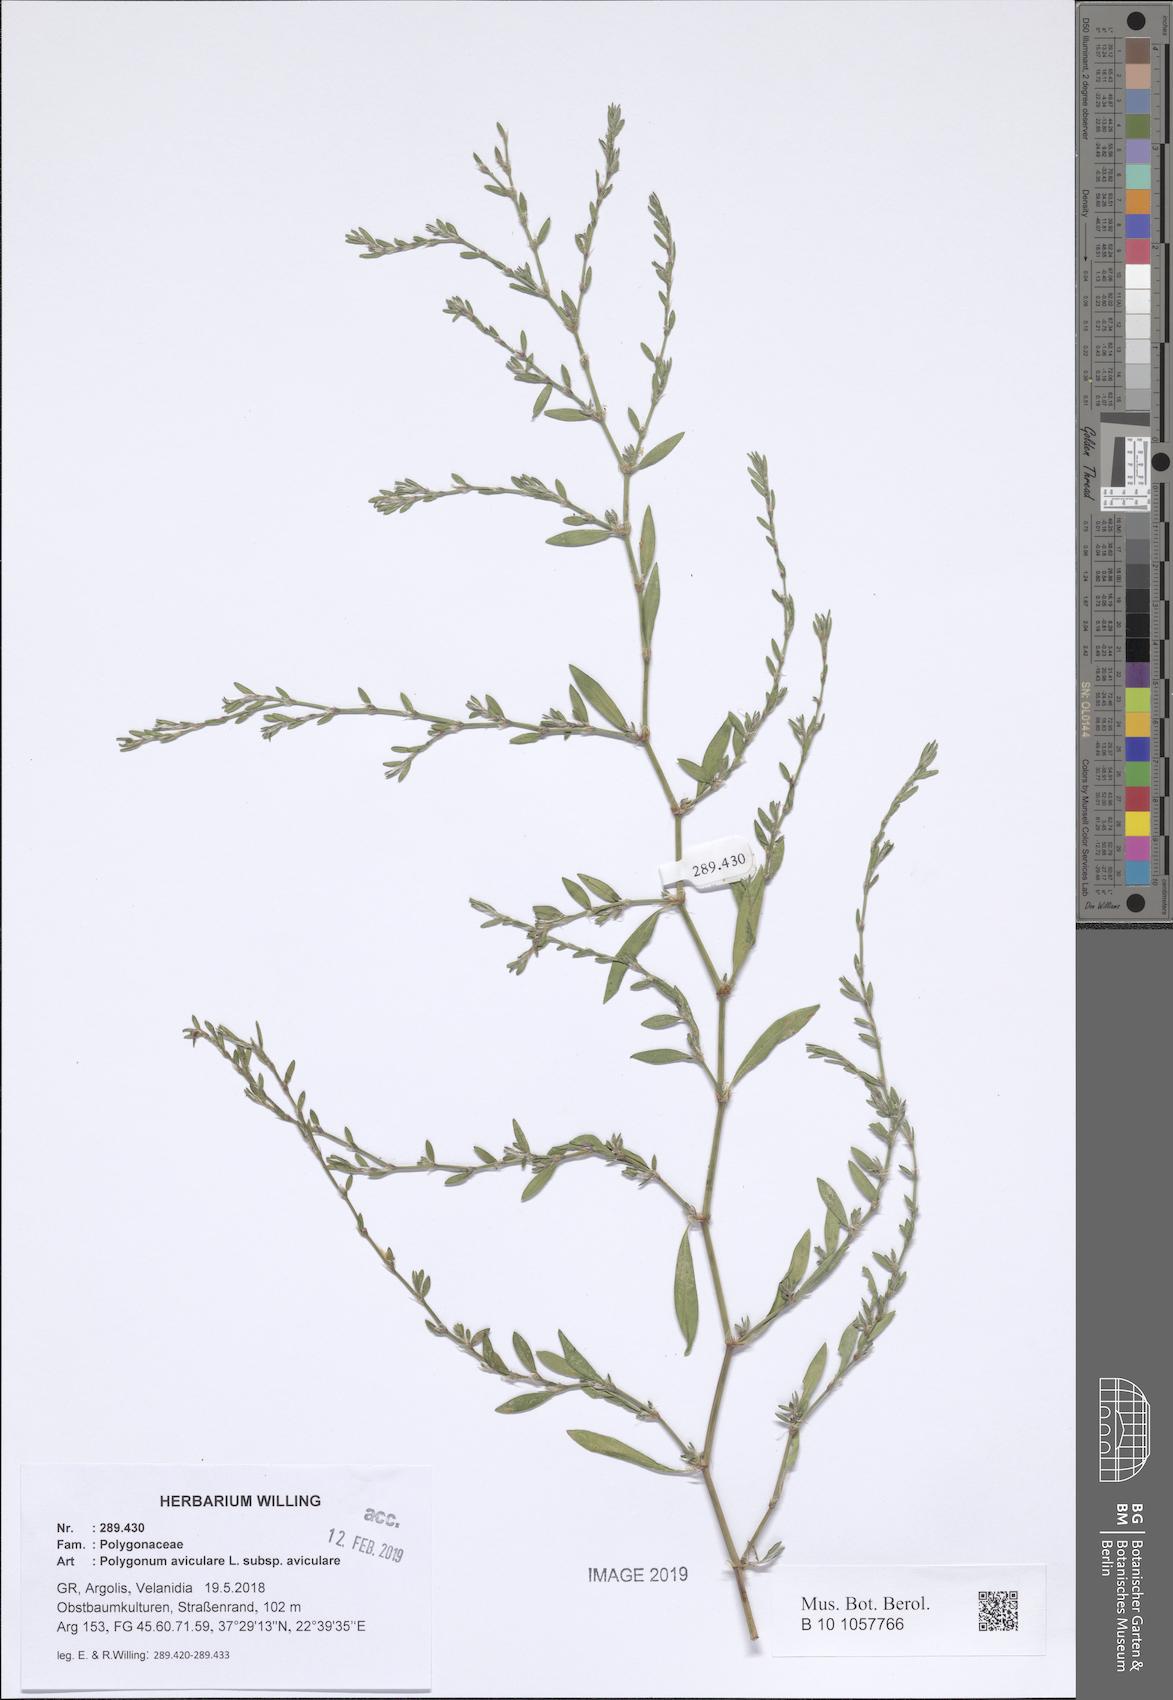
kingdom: Plantae
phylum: Tracheophyta
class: Magnoliopsida
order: Caryophyllales
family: Polygonaceae
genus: Polygonum
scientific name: Polygonum aviculare
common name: Prostrate knotweed
